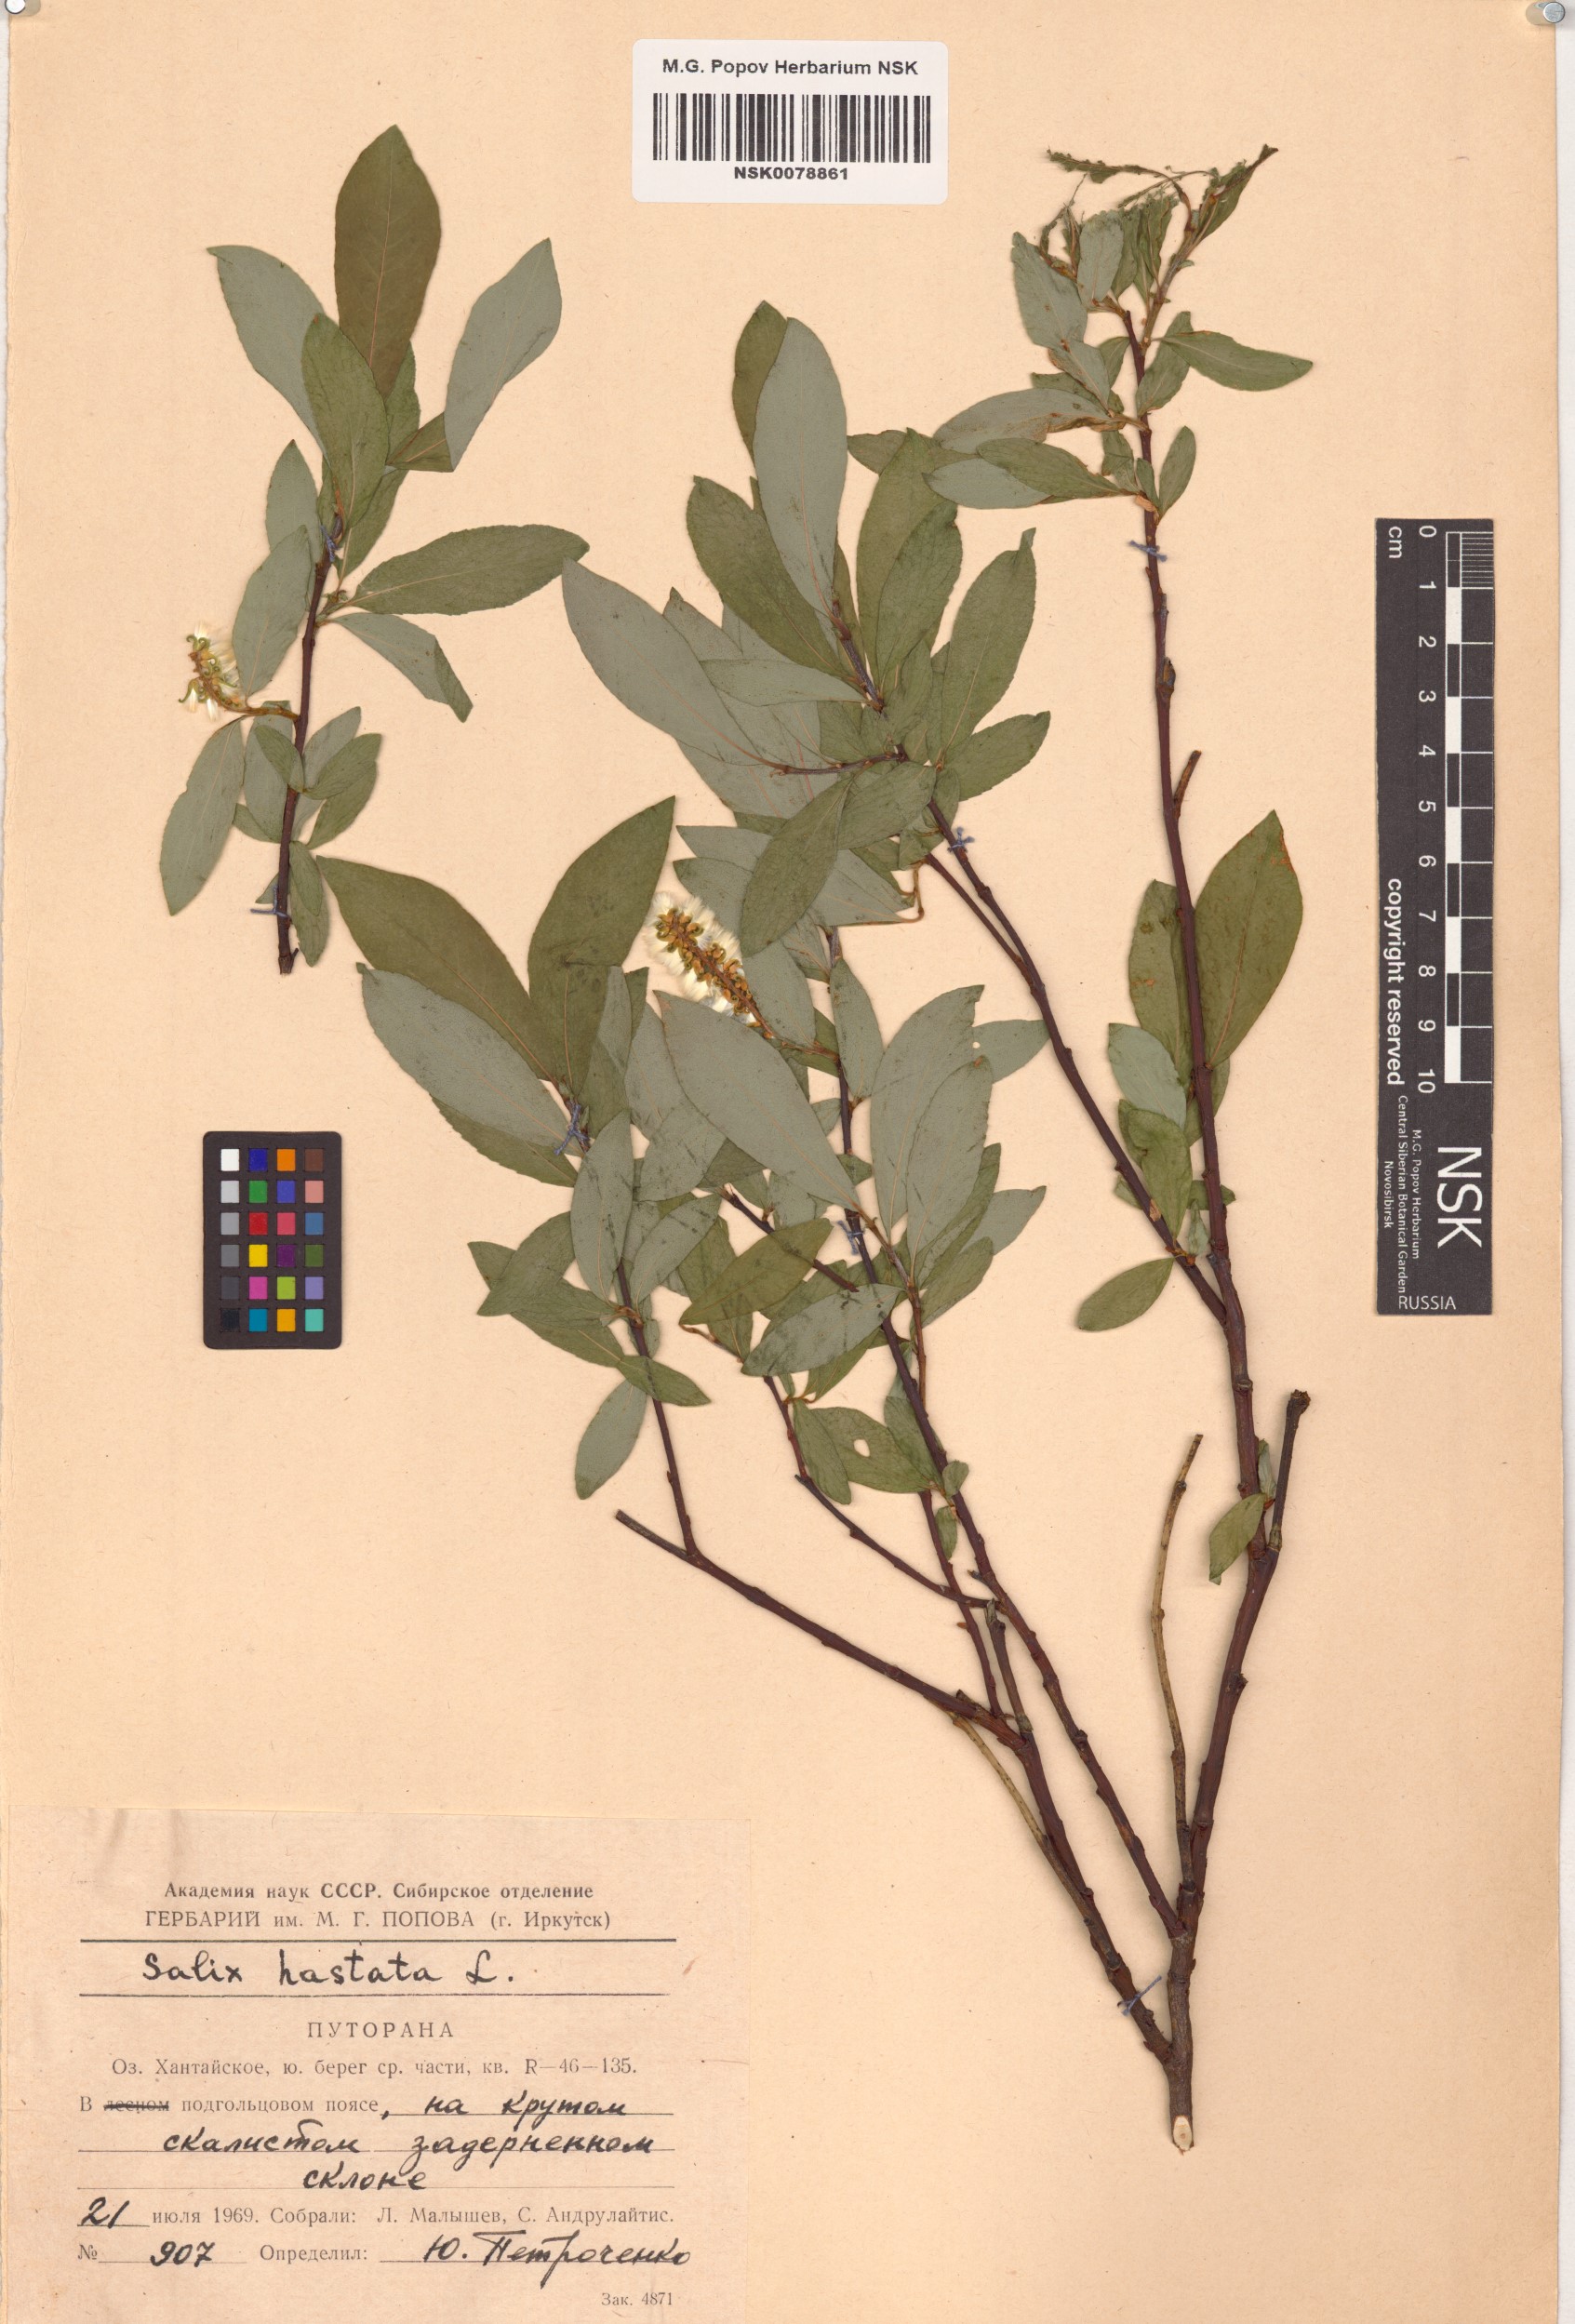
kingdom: Plantae
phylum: Tracheophyta
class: Magnoliopsida
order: Malpighiales
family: Salicaceae
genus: Salix
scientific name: Salix hastata
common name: Halberd willow
